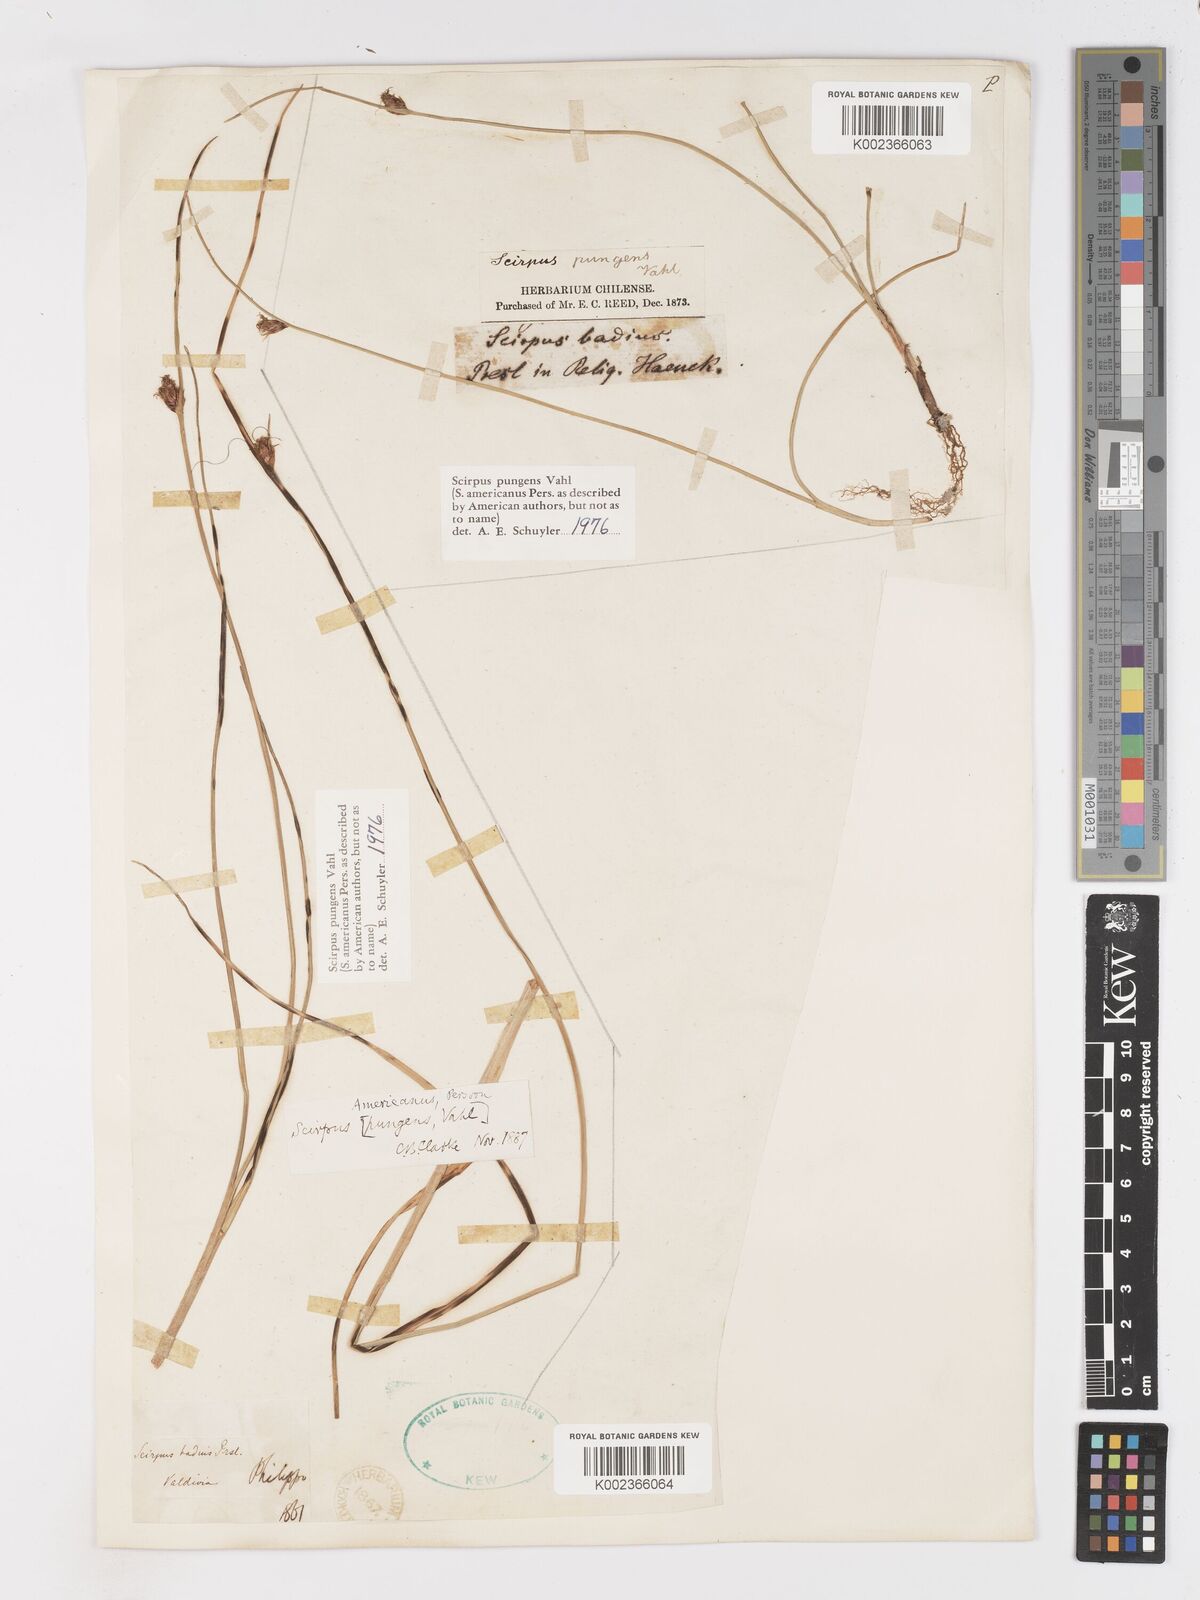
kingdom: Plantae
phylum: Tracheophyta
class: Liliopsida
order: Poales
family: Cyperaceae
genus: Schoenoplectus
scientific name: Schoenoplectus pungens
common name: Sharp club-rush
